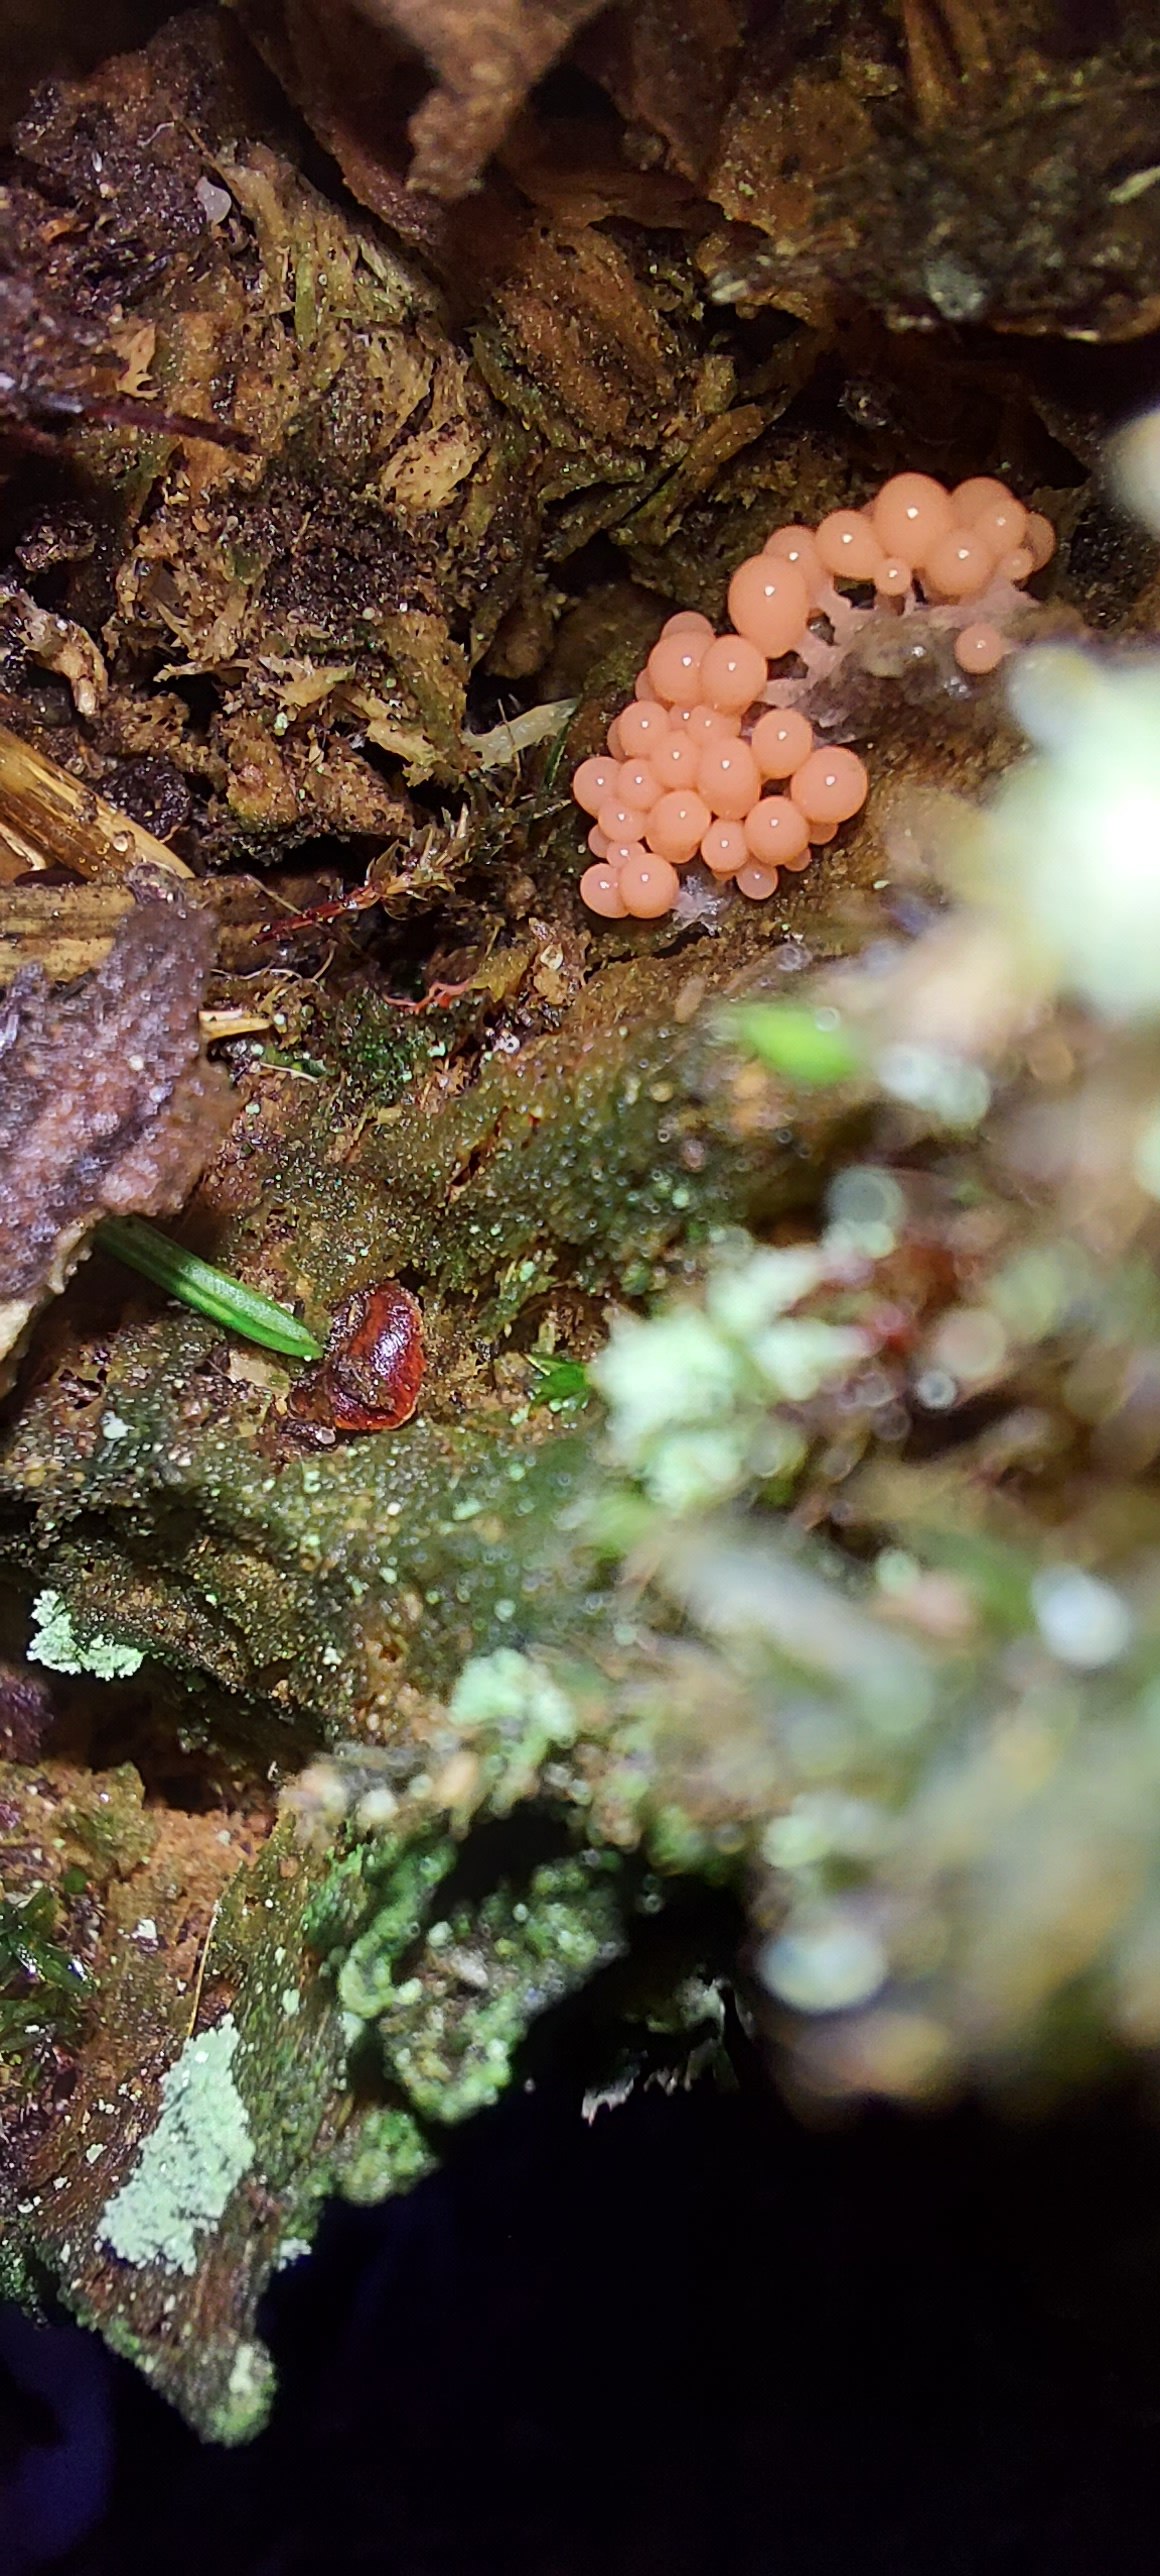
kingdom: Protozoa
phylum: Mycetozoa
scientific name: Mycetozoa
